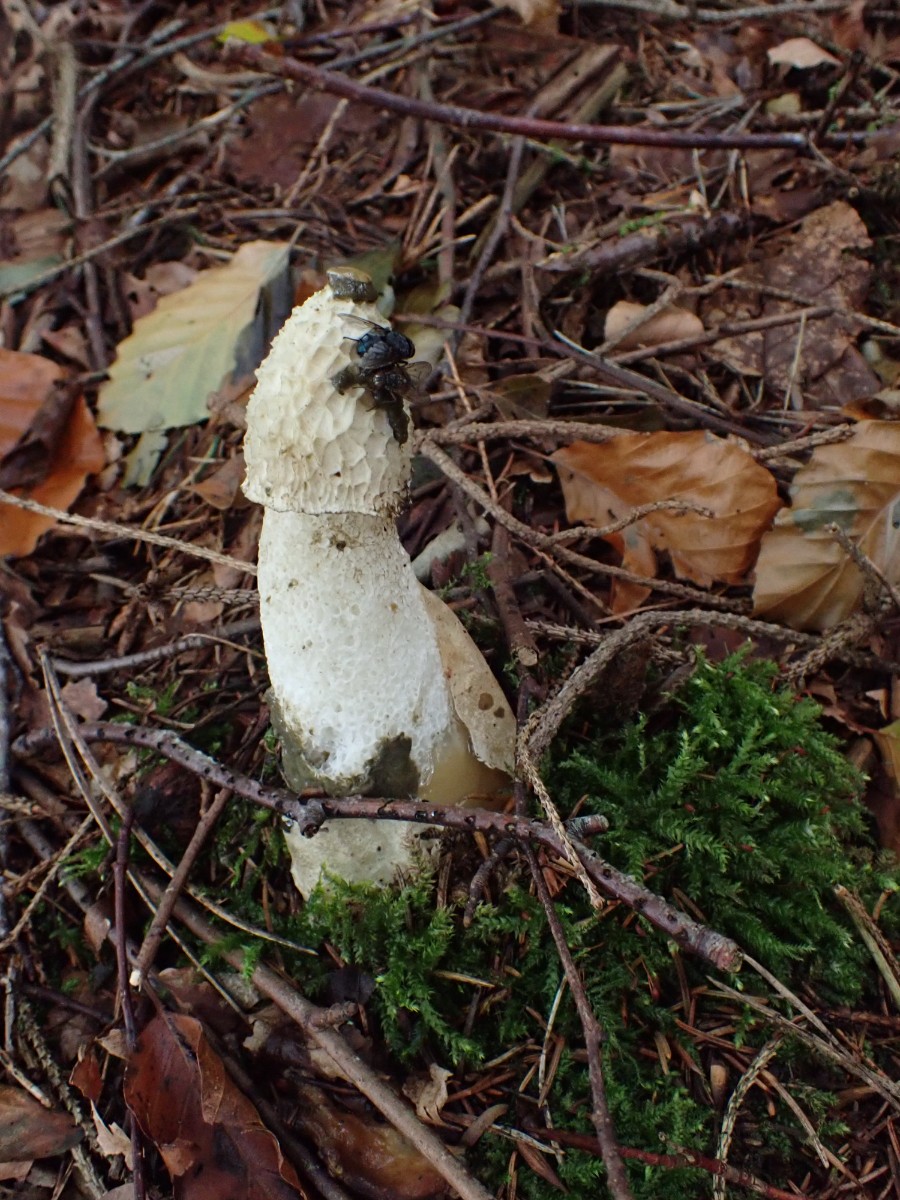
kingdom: Fungi
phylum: Basidiomycota
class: Agaricomycetes
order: Phallales
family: Phallaceae
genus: Phallus
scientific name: Phallus impudicus
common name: almindelig stinksvamp
